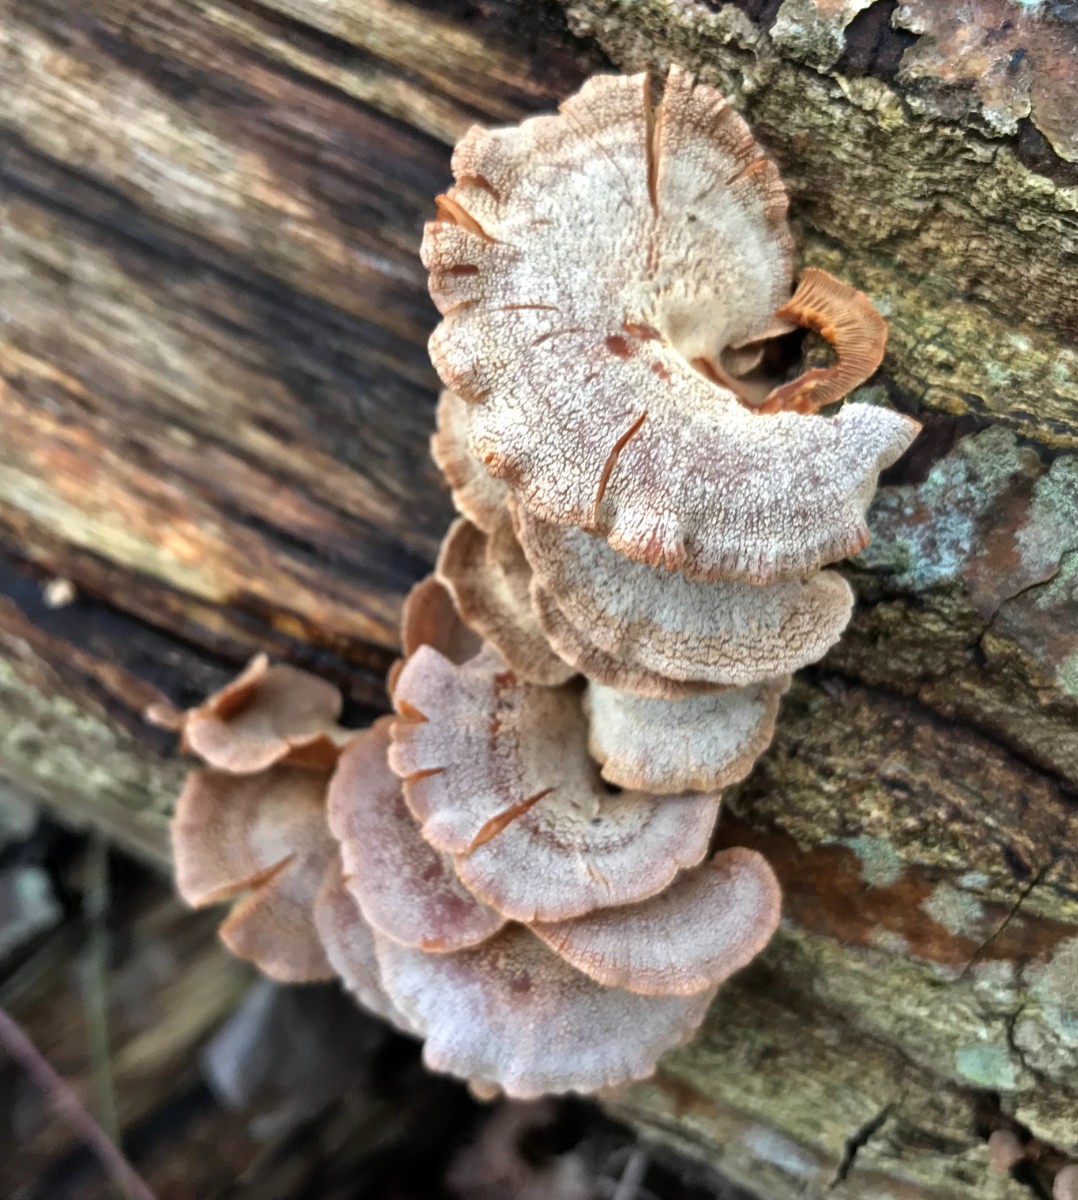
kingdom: Fungi
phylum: Basidiomycota
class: Agaricomycetes
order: Agaricales
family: Mycenaceae
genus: Panellus
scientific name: Panellus stipticus
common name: kliddet epaulethat
